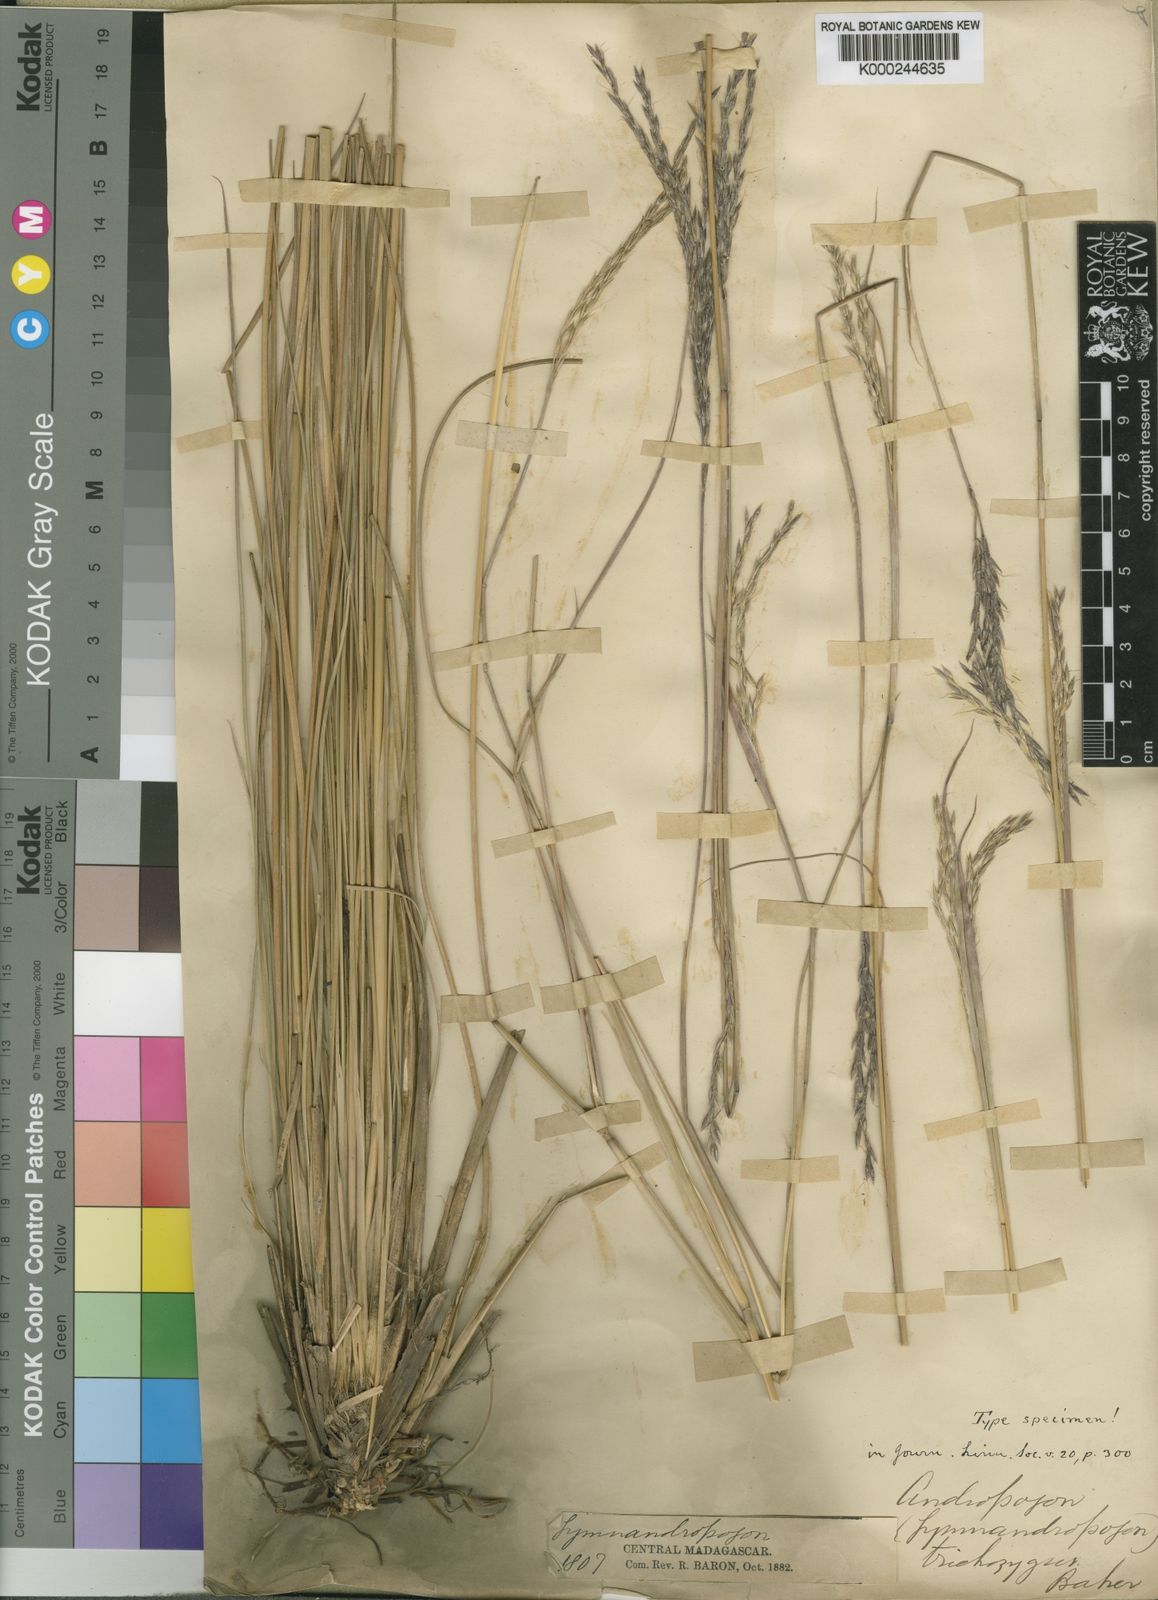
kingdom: Plantae
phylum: Tracheophyta
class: Liliopsida
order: Poales
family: Poaceae
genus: Andropogon
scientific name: Andropogon trichozygus
